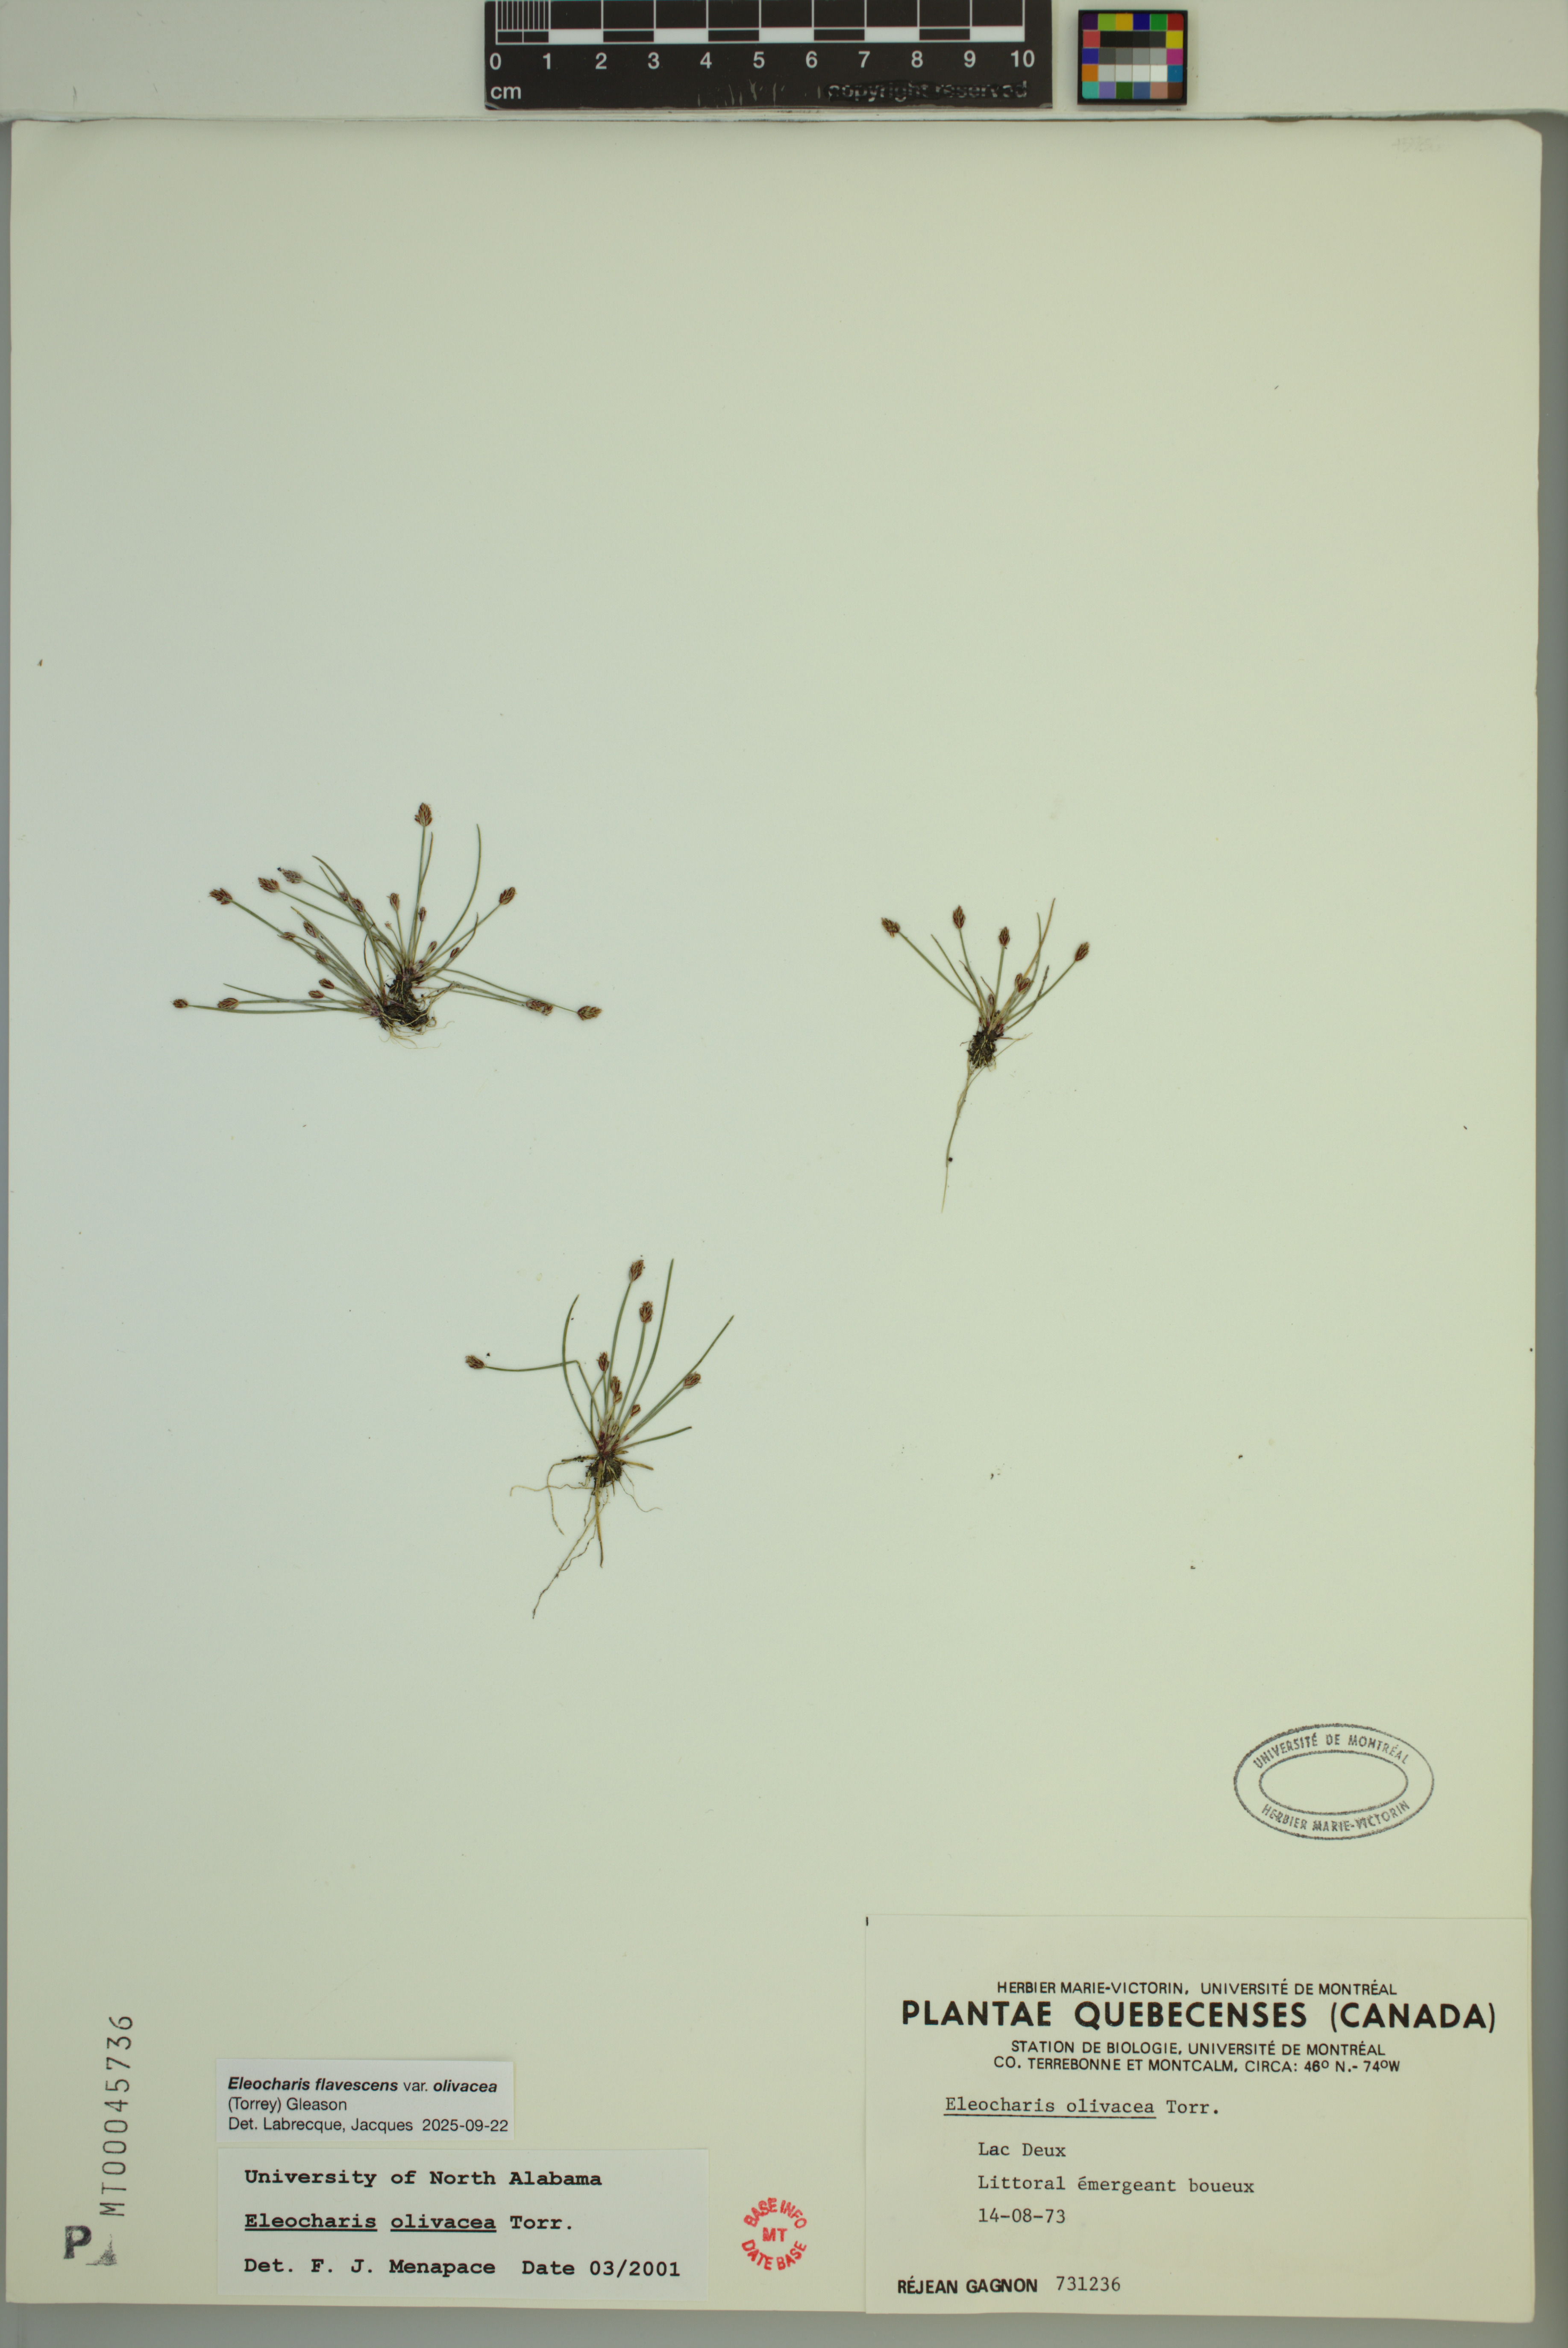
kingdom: Plantae
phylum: Tracheophyta
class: Liliopsida
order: Poales
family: Cyperaceae
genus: Eleocharis
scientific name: Eleocharis flavescens
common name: Yellow spikerush
